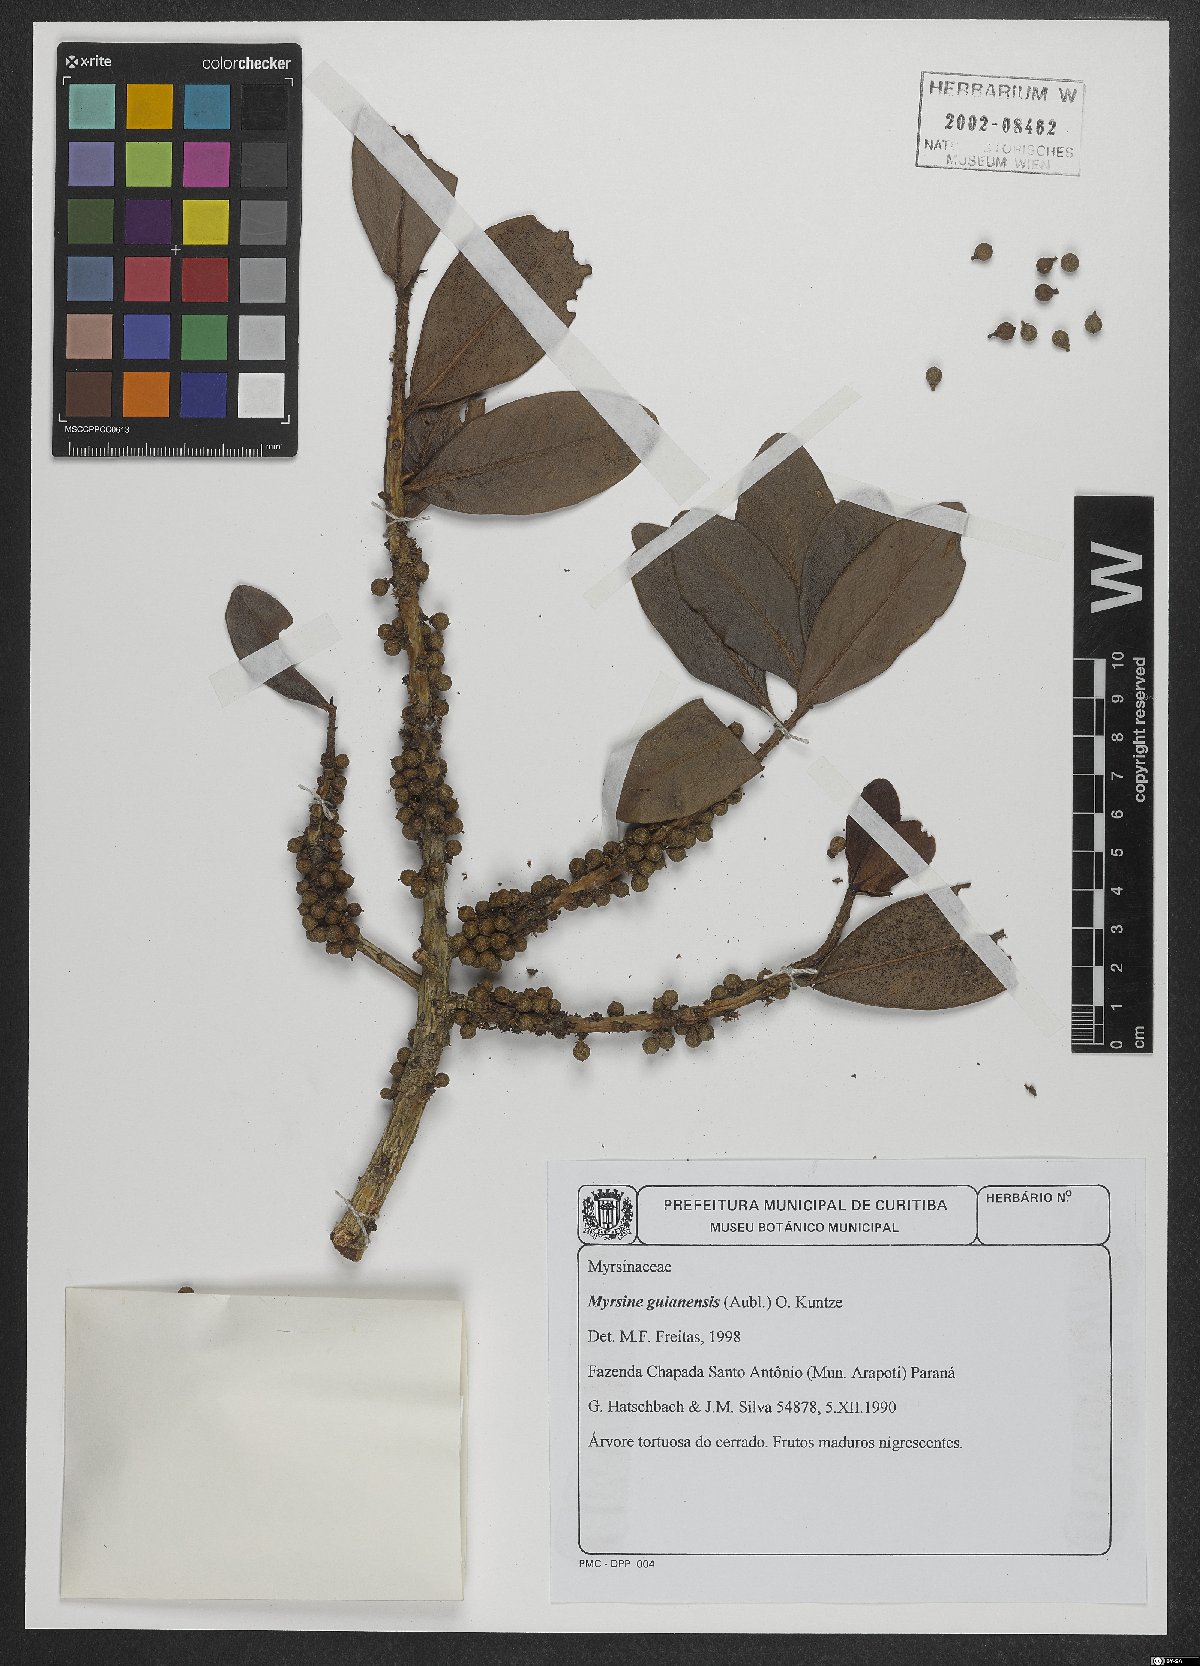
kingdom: Plantae
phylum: Tracheophyta
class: Magnoliopsida
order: Ericales
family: Primulaceae
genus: Myrsine
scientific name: Myrsine guianensis
